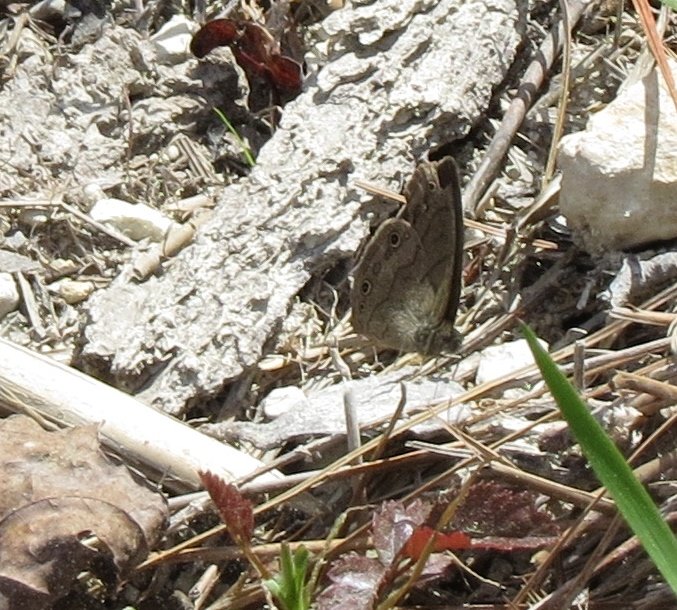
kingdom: Animalia
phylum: Arthropoda
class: Insecta
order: Lepidoptera
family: Nymphalidae
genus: Hermeuptychia
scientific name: Hermeuptychia hermes
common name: Carolina Satyr
